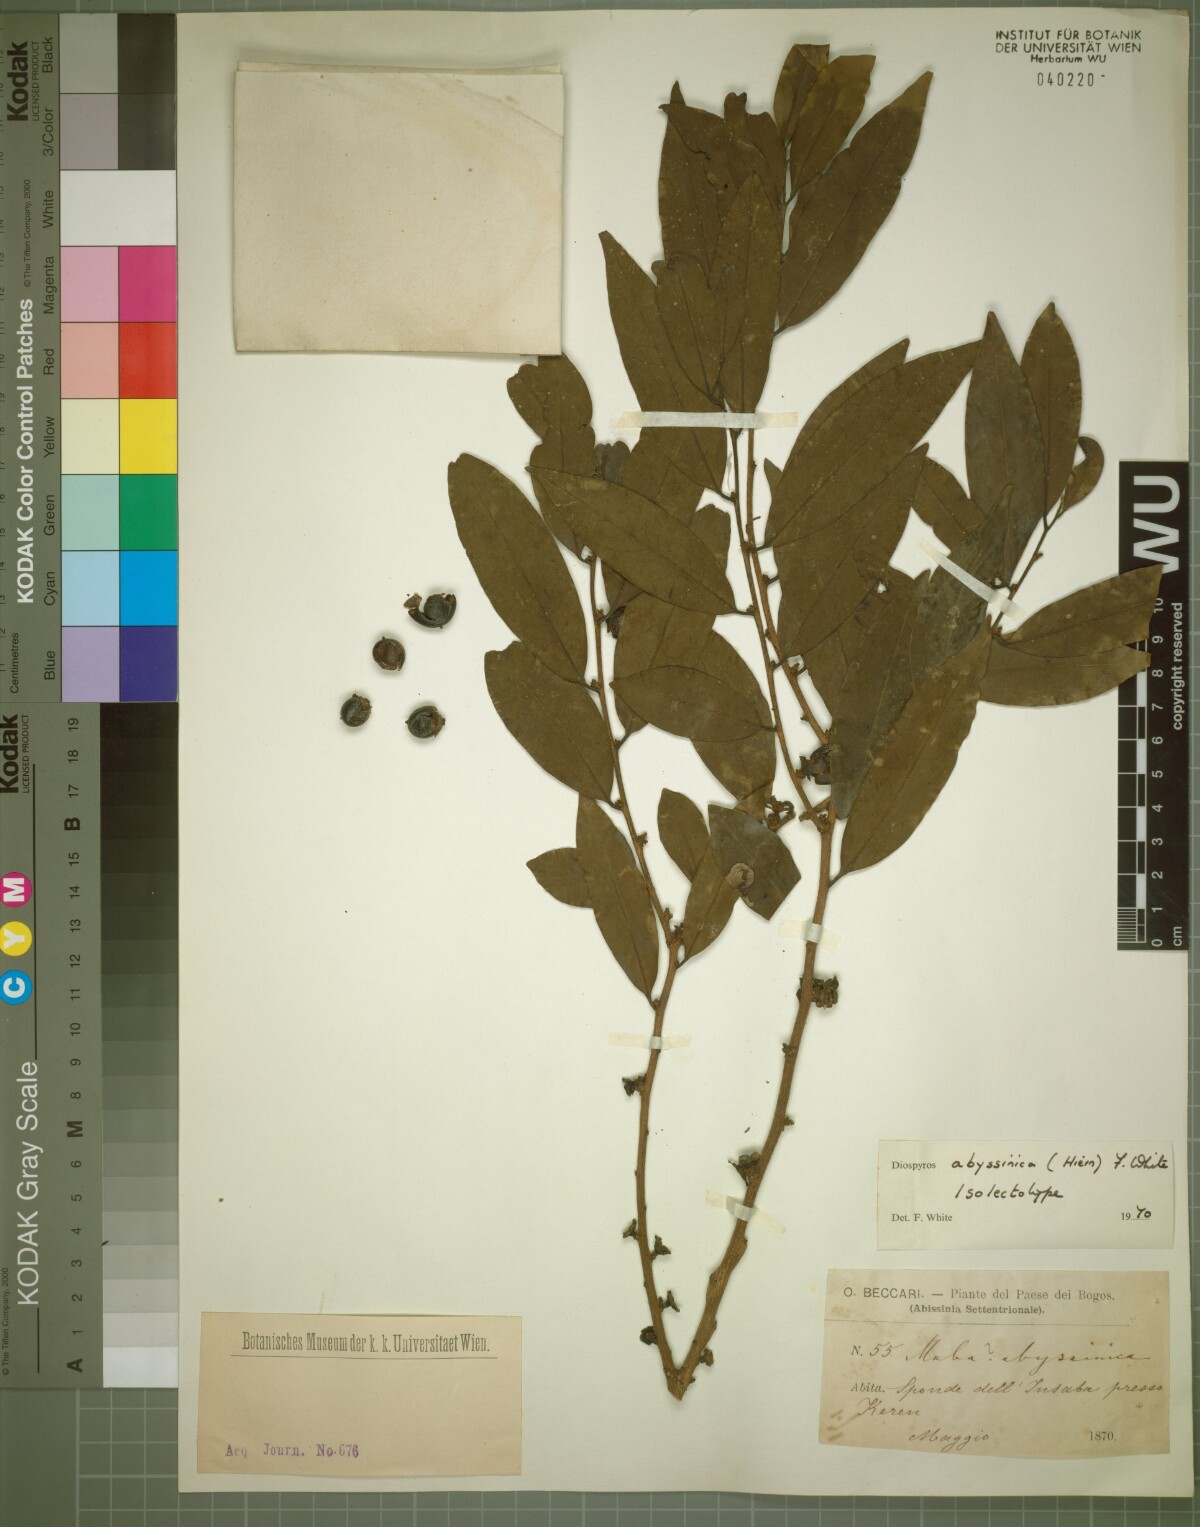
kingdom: Plantae
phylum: Tracheophyta
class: Magnoliopsida
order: Ericales
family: Ebenaceae
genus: Diospyros
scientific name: Diospyros abyssinica
